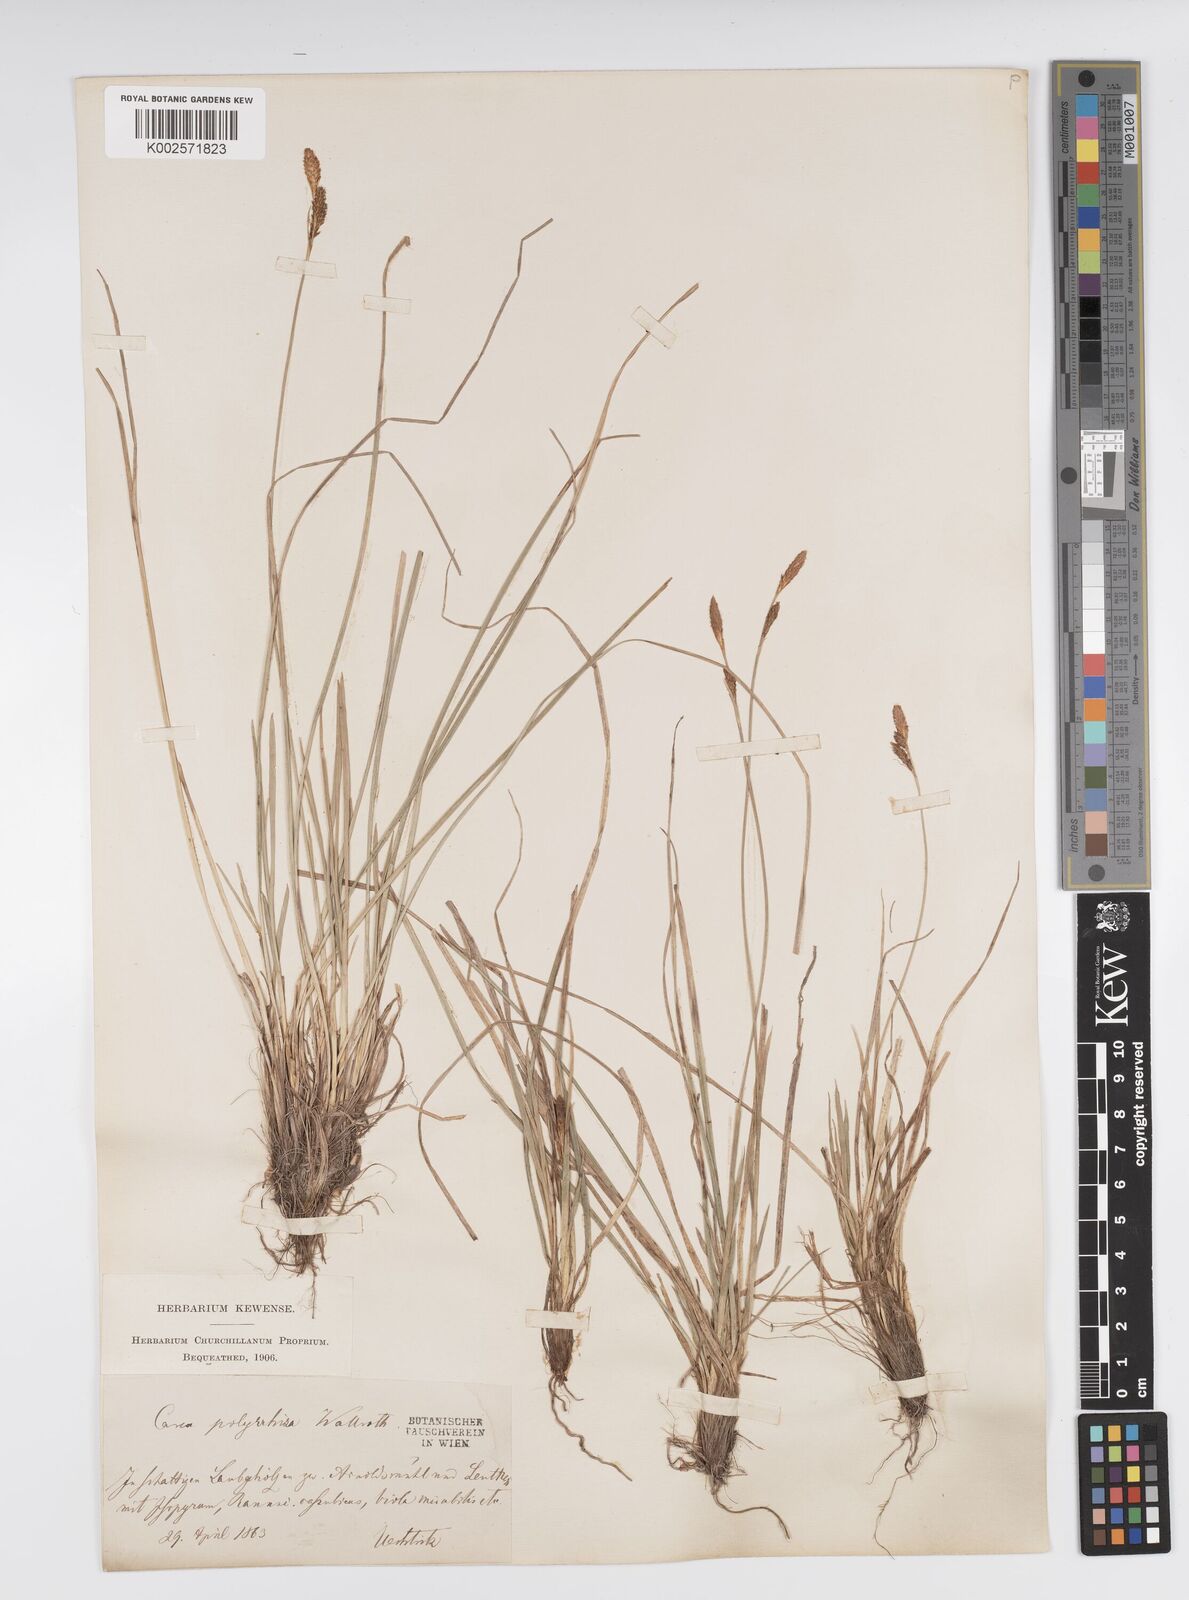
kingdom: Plantae
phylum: Tracheophyta
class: Liliopsida
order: Poales
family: Cyperaceae
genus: Carex
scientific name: Carex umbrosa
